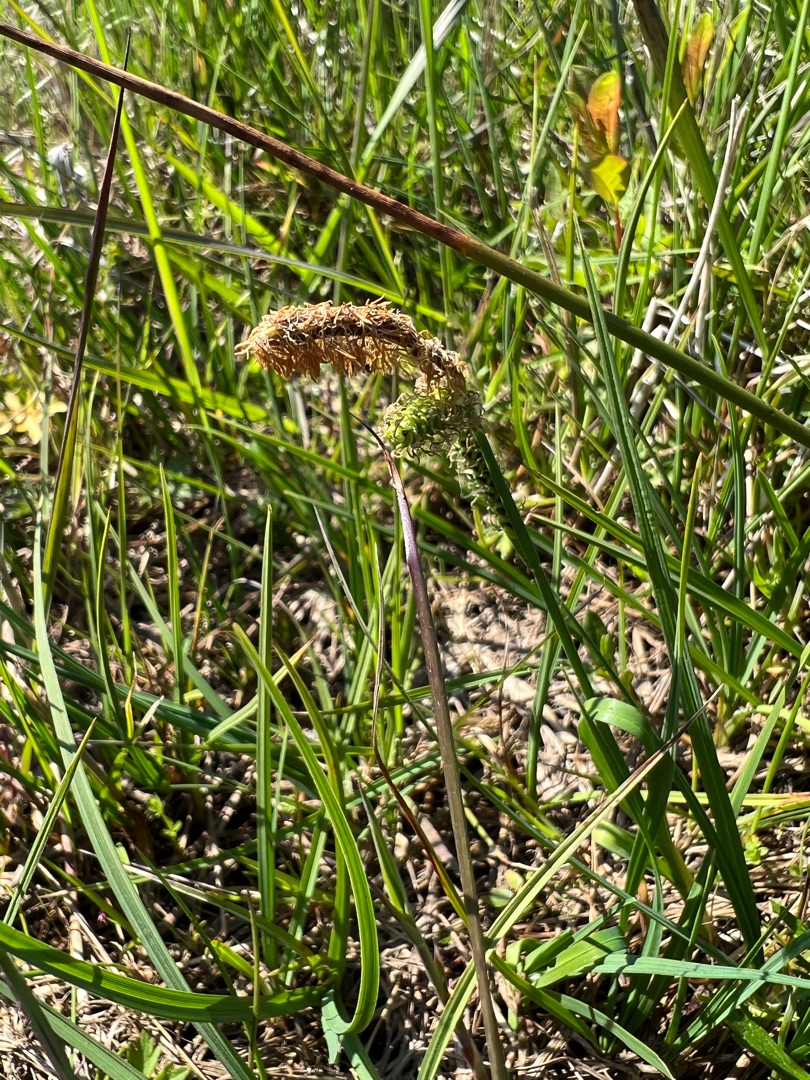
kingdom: Plantae
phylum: Tracheophyta
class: Liliopsida
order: Poales
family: Cyperaceae
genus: Carex
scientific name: Carex flacca
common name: Blågrøn star
